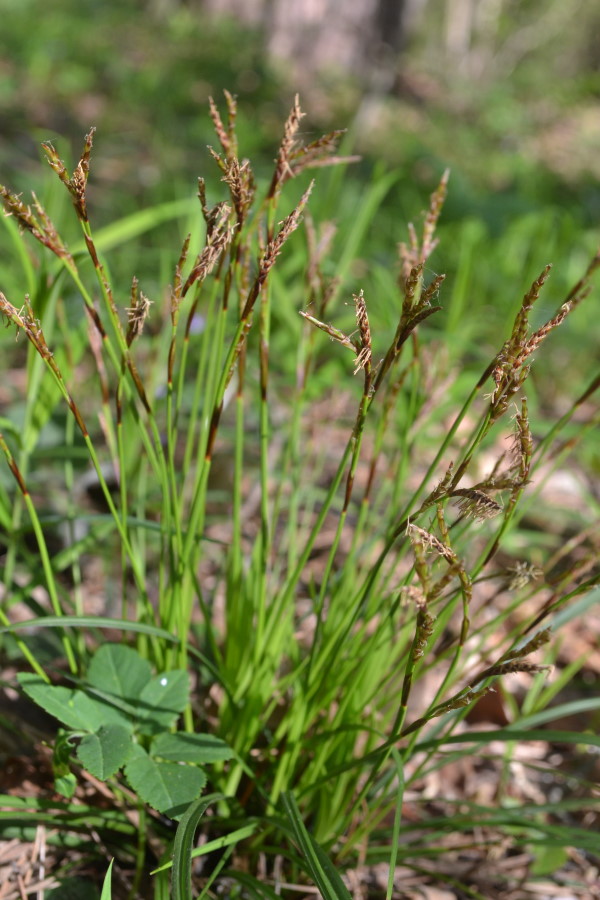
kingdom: Plantae
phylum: Tracheophyta
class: Liliopsida
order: Poales
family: Cyperaceae
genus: Carex
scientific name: Carex
